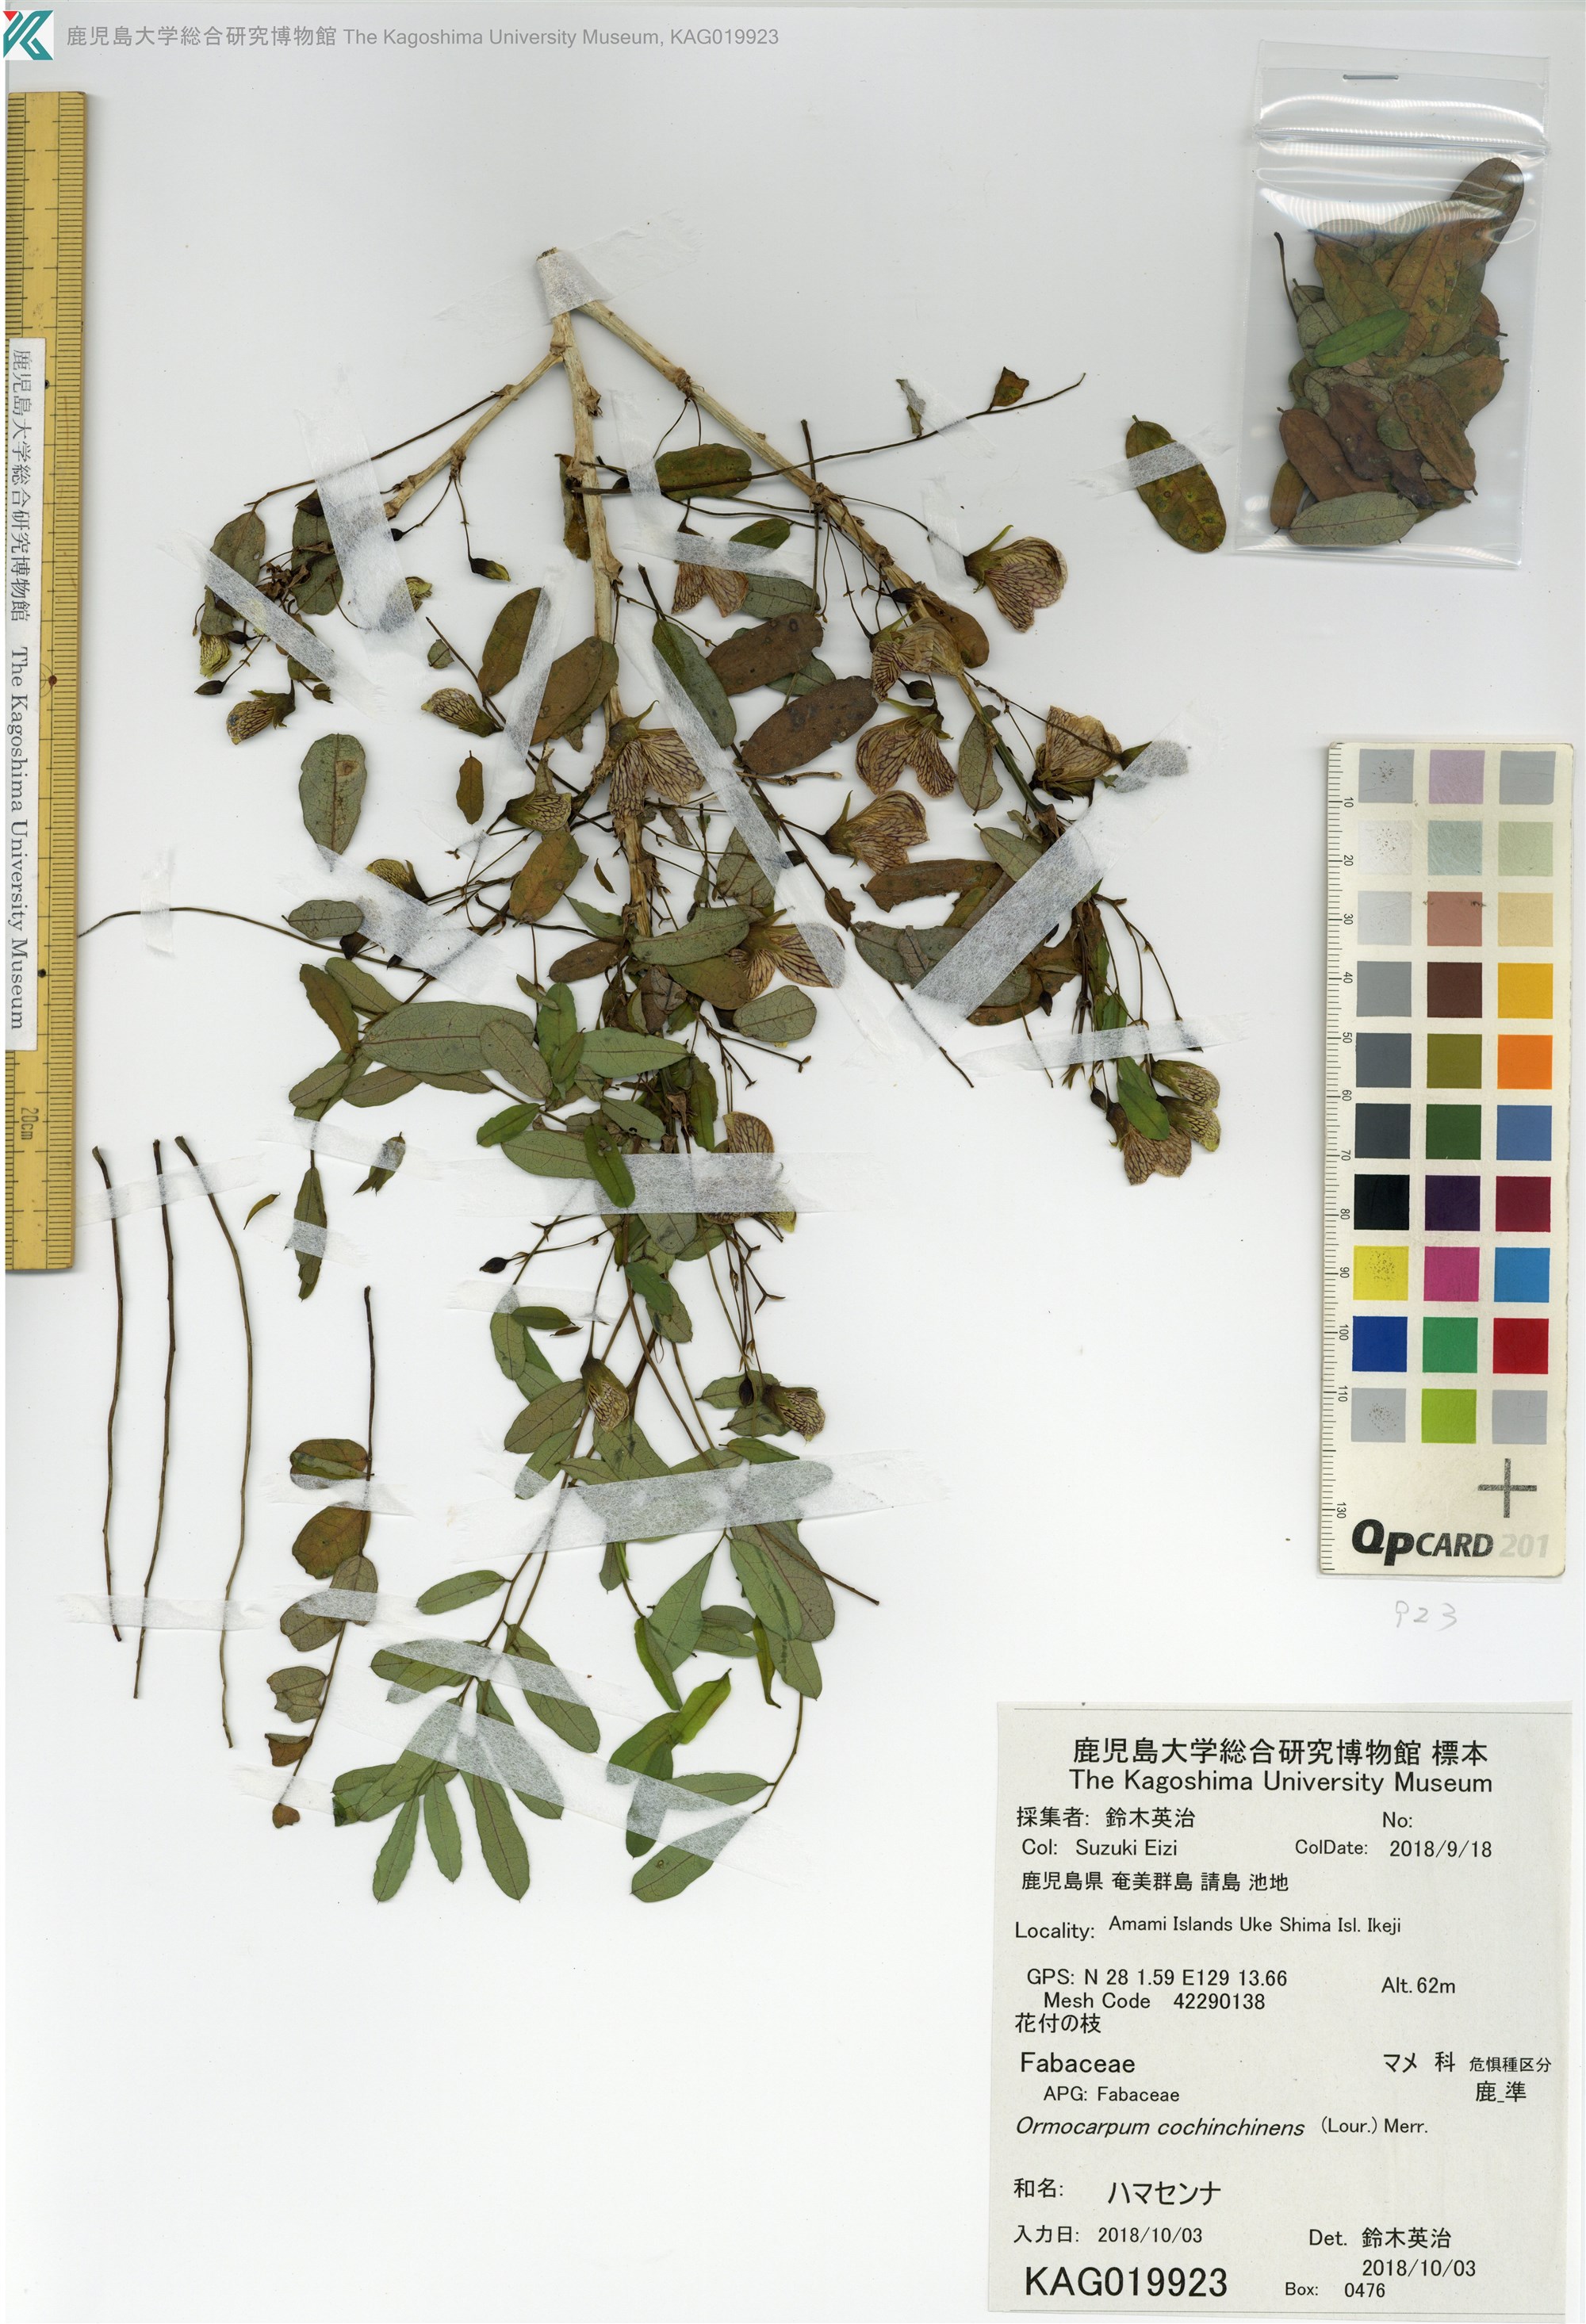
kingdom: Plantae
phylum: Tracheophyta
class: Magnoliopsida
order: Fabales
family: Fabaceae
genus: Ormocarpum
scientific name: Ormocarpum cochinchinense
